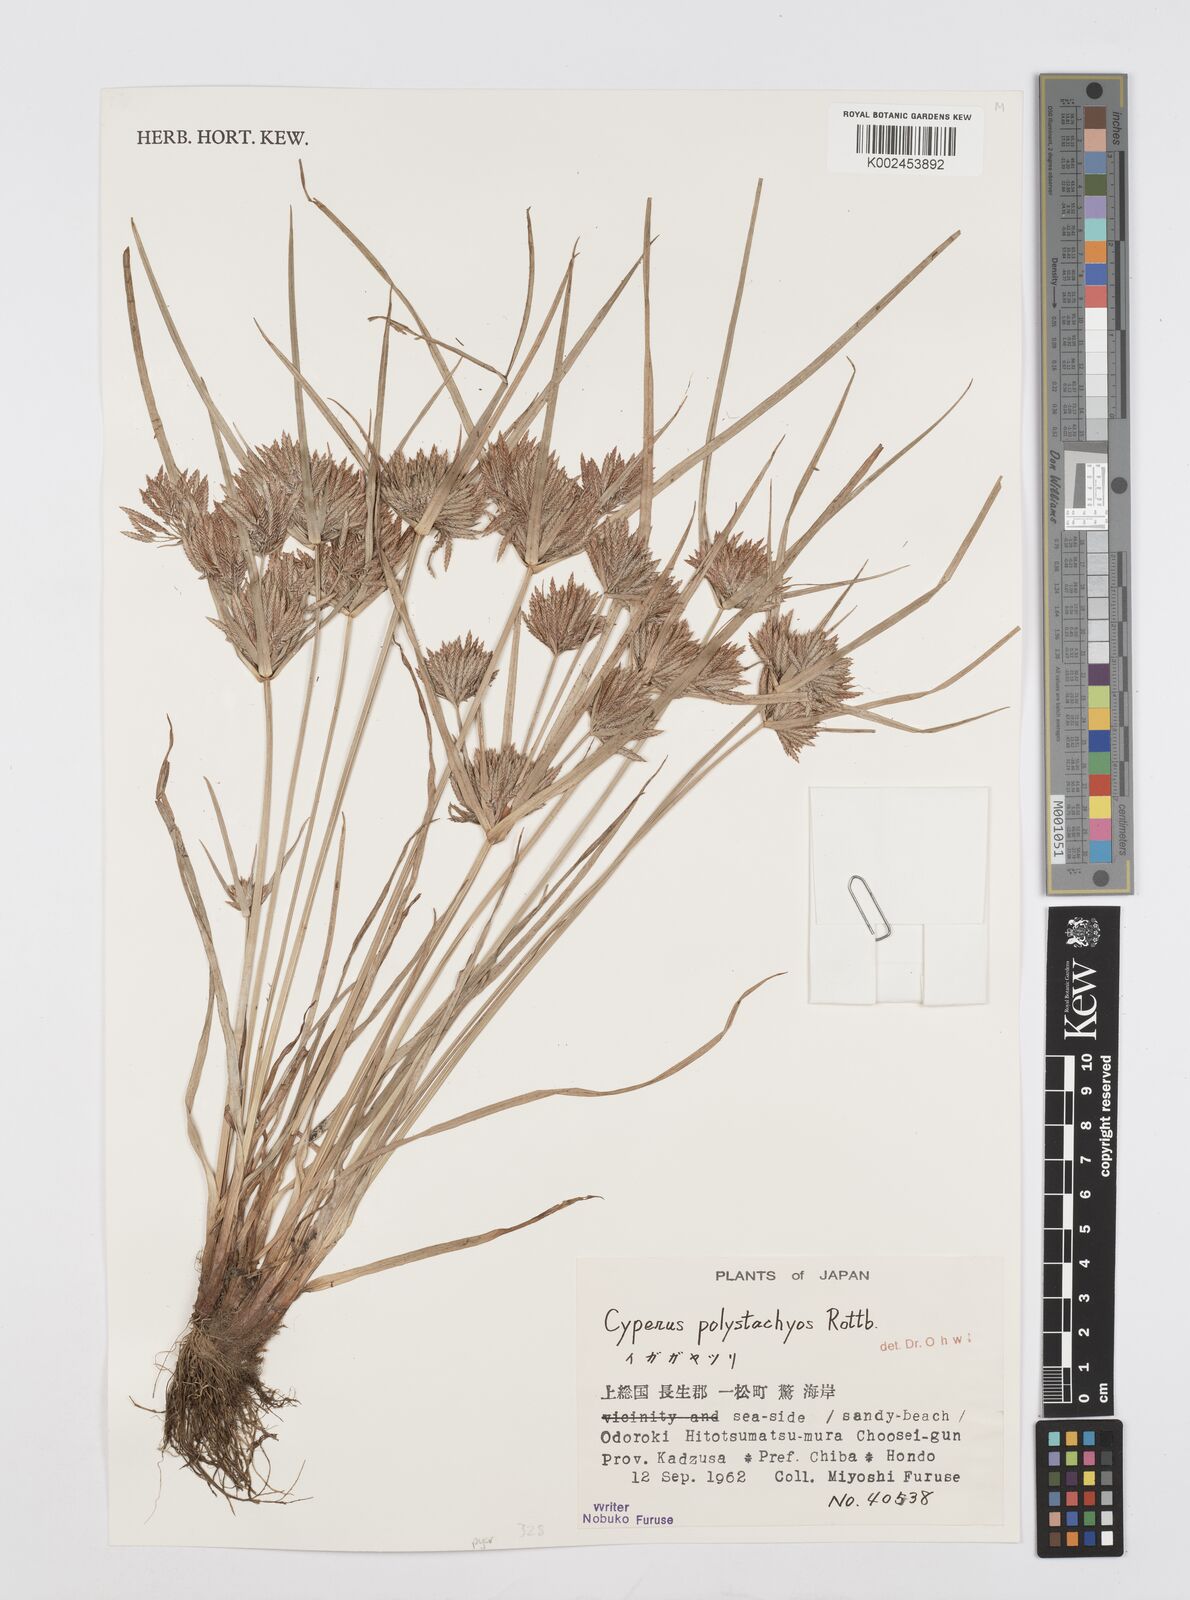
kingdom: Plantae
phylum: Tracheophyta
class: Liliopsida
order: Poales
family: Cyperaceae
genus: Cyperus
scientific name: Cyperus polystachyos
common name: Bunchy flat sedge
